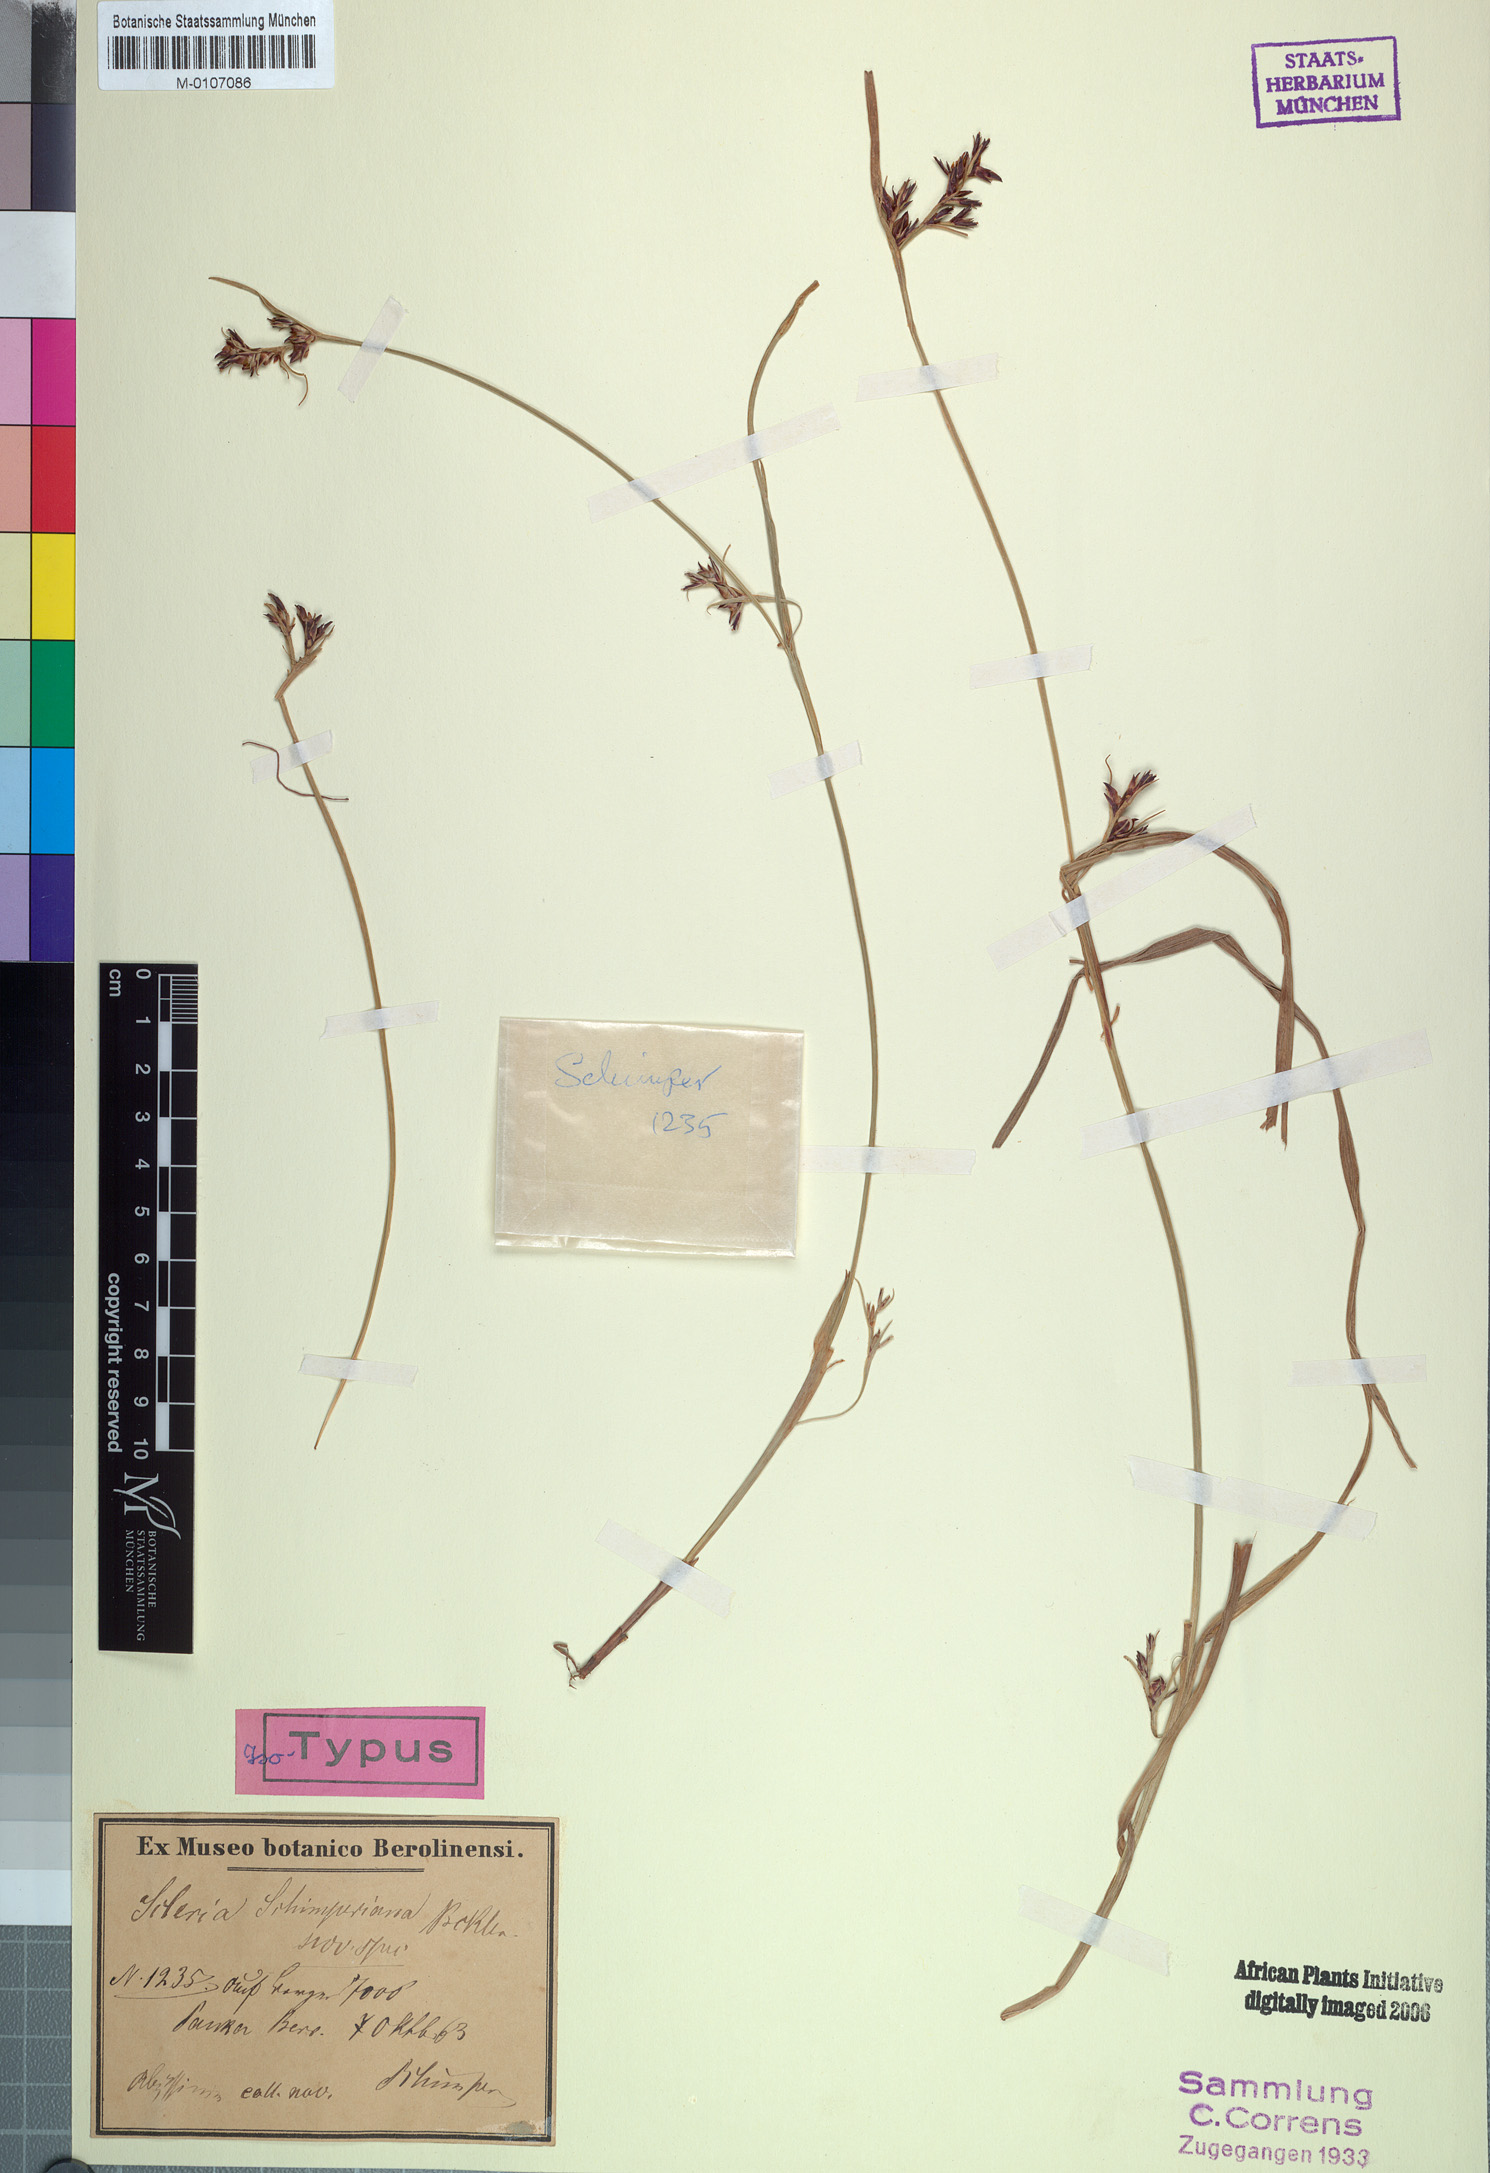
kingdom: Plantae
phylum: Tracheophyta
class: Liliopsida
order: Poales
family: Cyperaceae
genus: Scleria
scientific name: Scleria schimperiana
